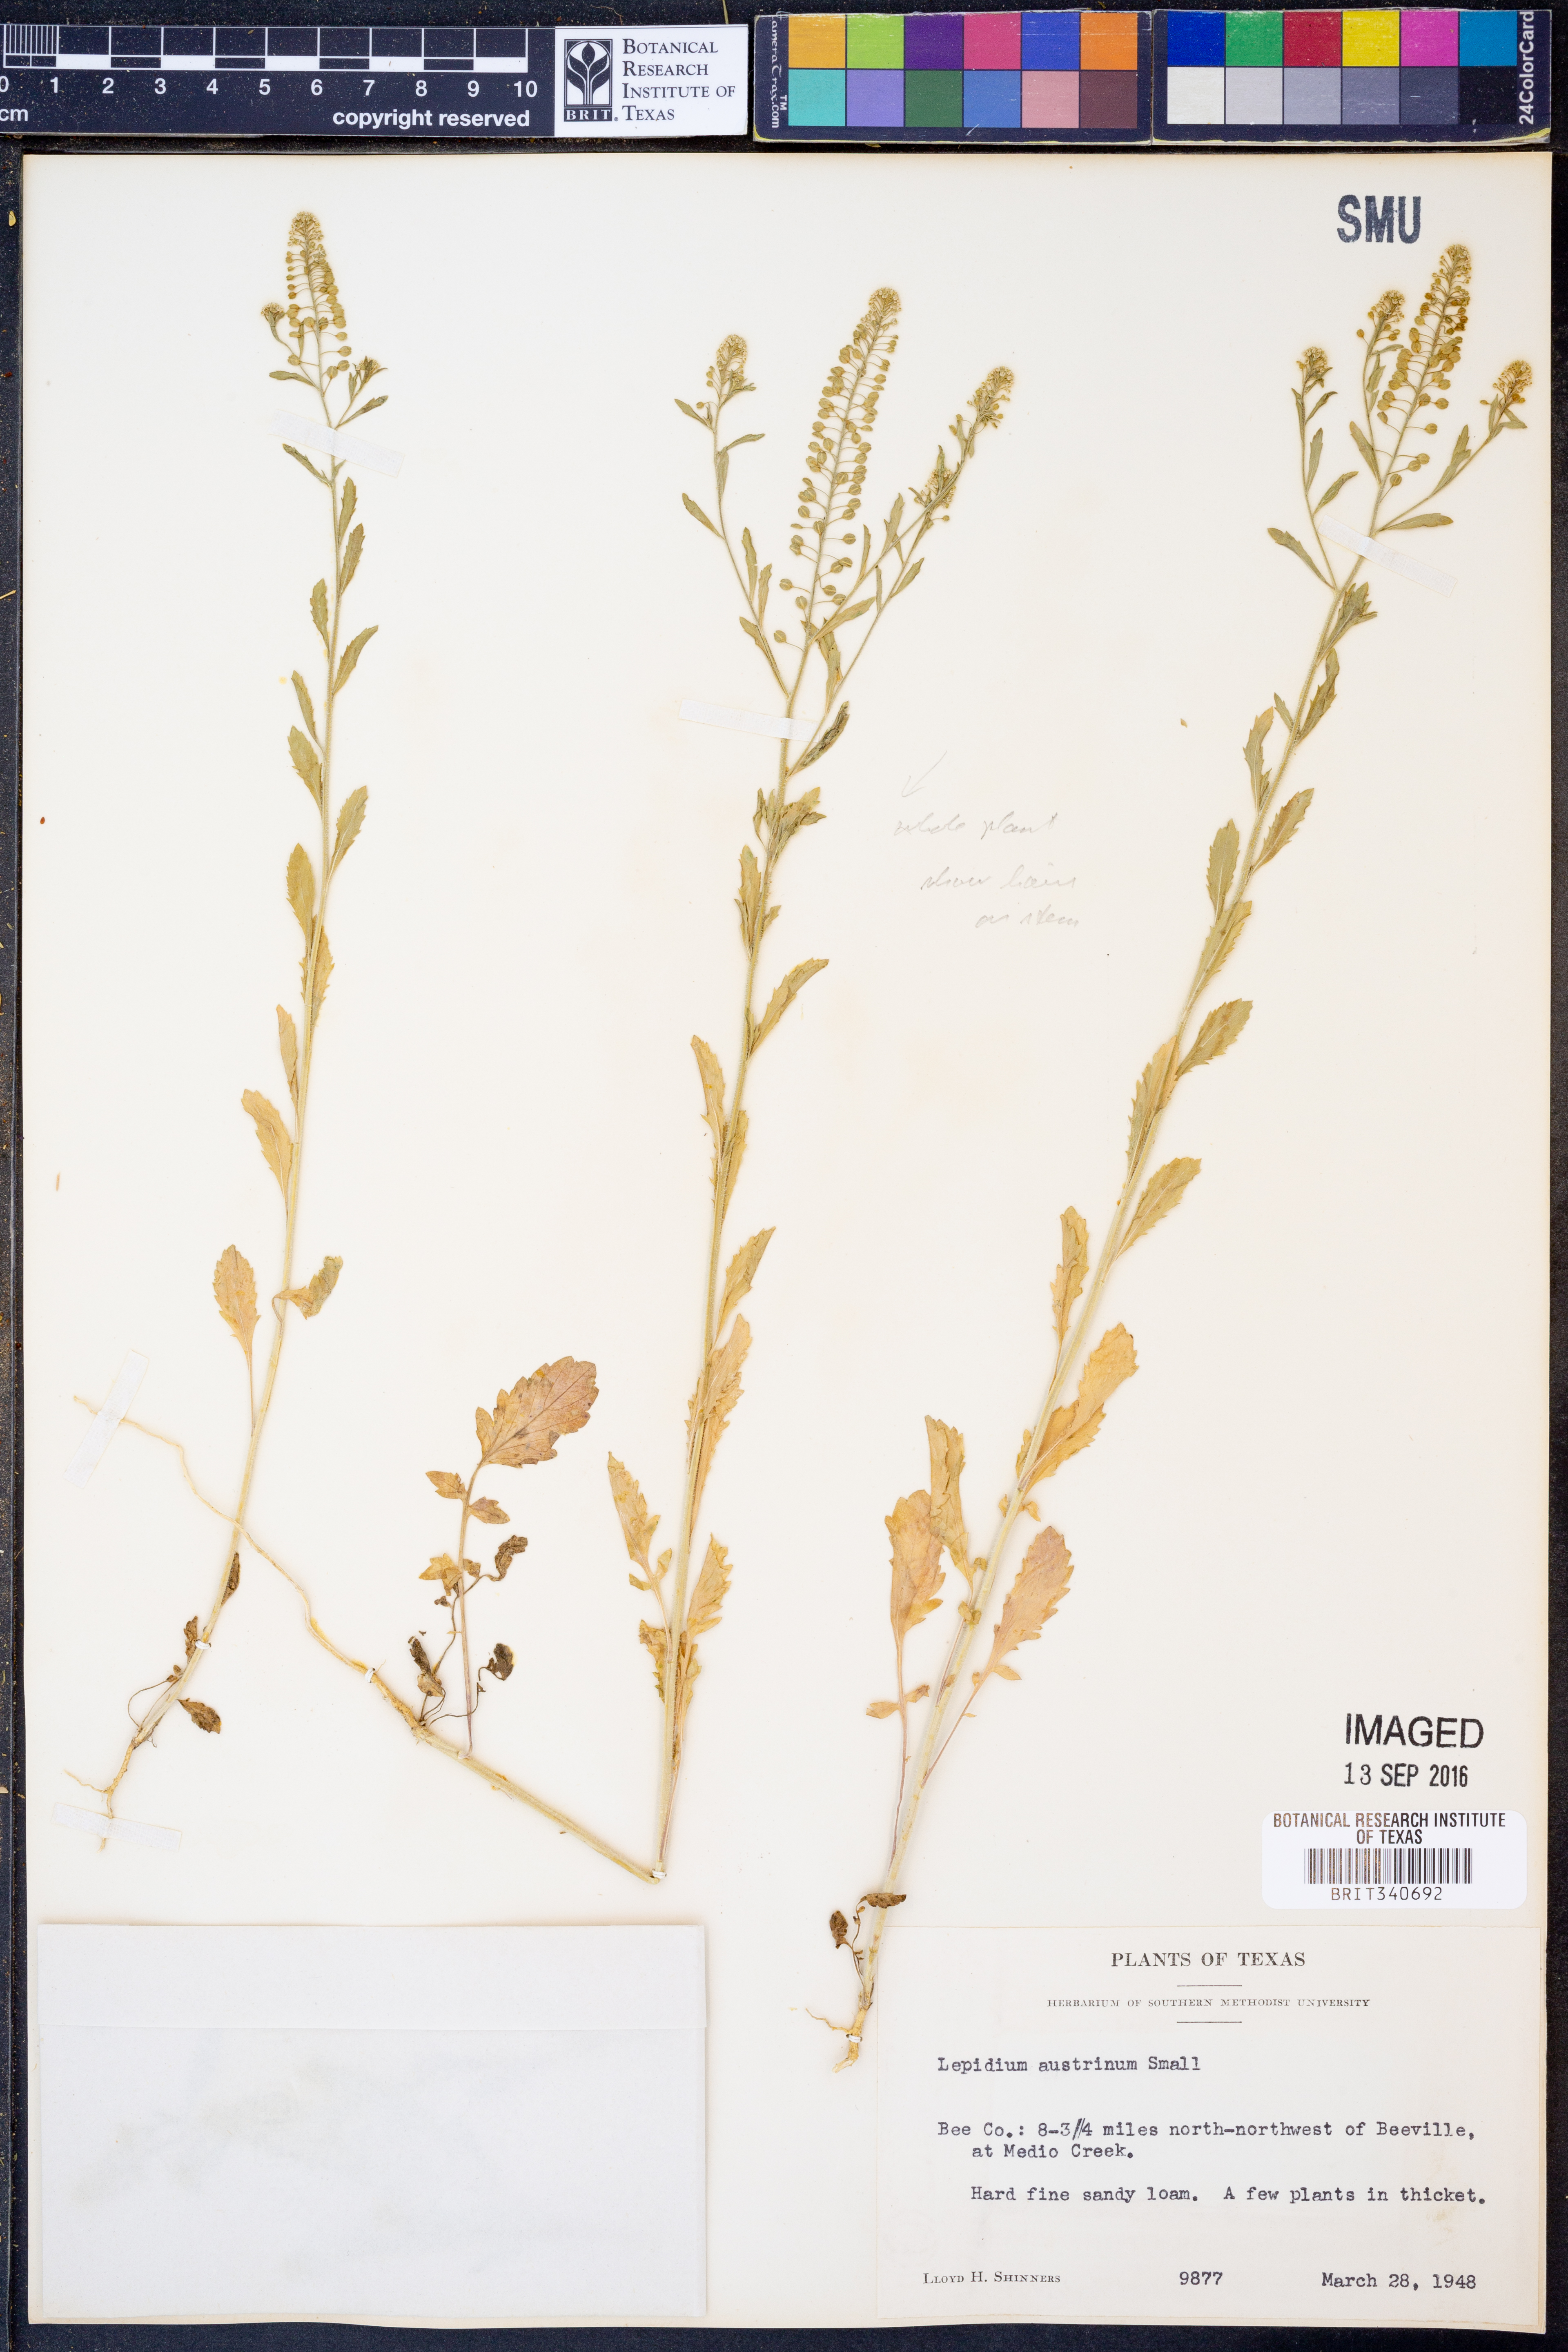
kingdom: Plantae
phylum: Tracheophyta
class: Magnoliopsida
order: Brassicales
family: Brassicaceae
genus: Lepidium
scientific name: Lepidium austrinum
